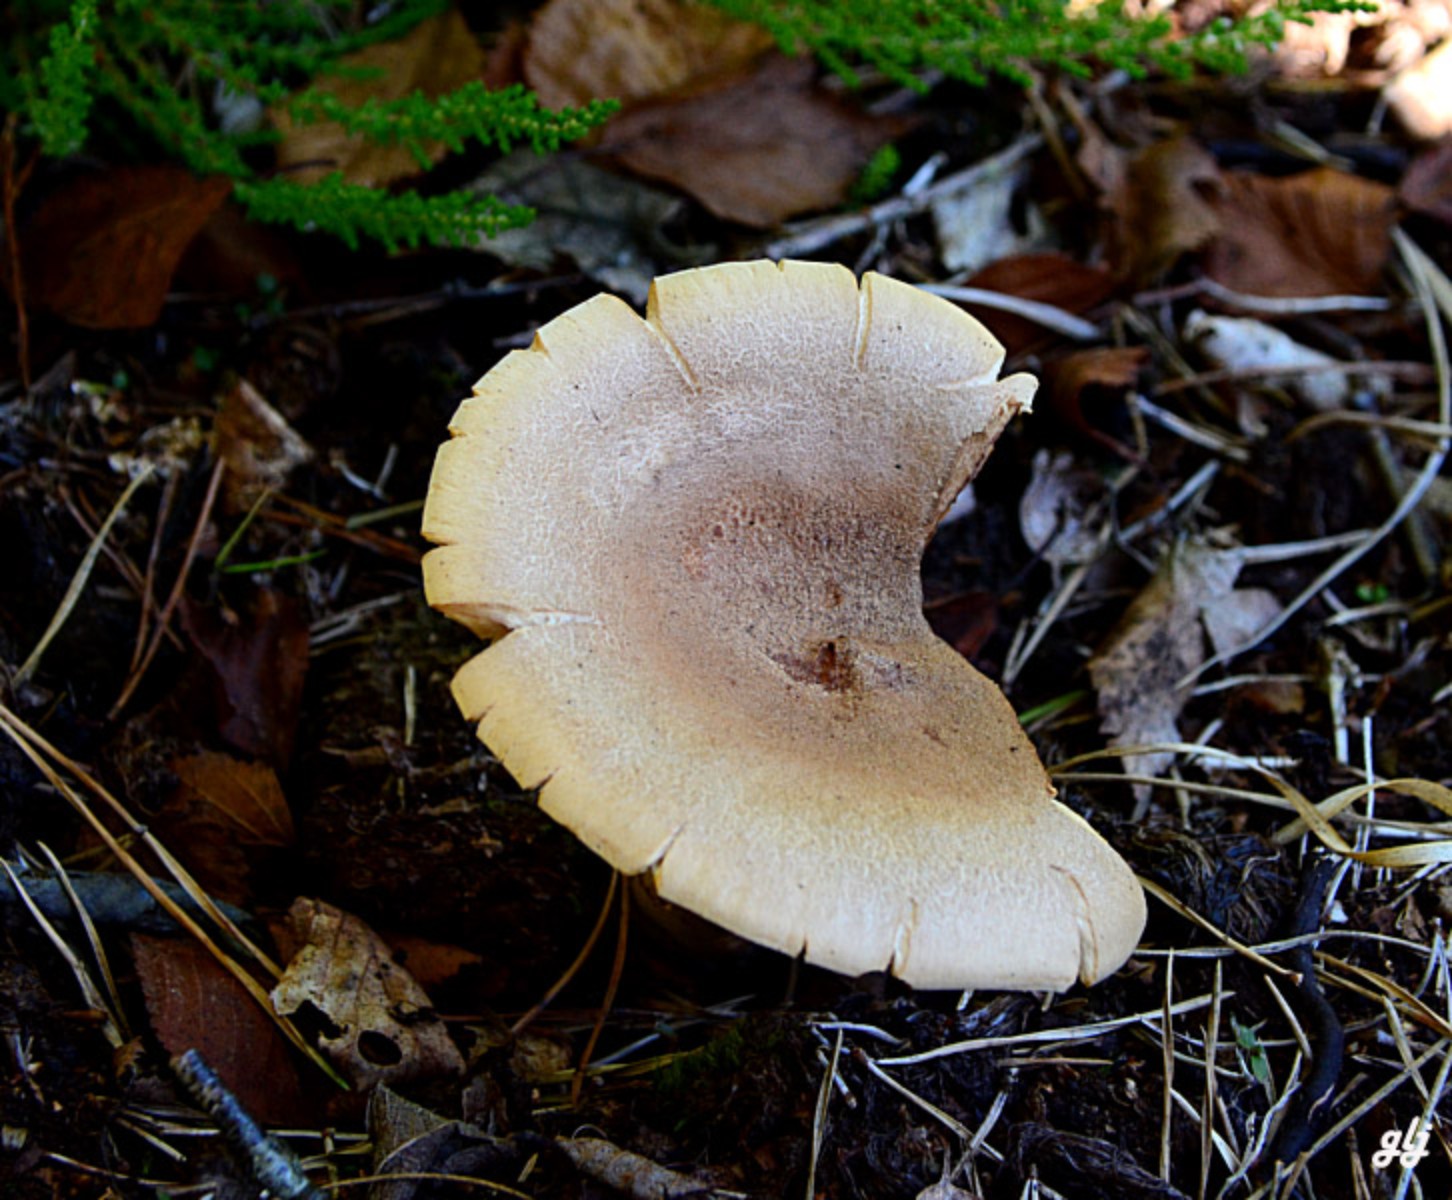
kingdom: Fungi
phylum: Basidiomycota
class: Agaricomycetes
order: Russulales
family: Russulaceae
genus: Lactarius
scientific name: Lactarius helvus
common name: mose-mælkehat
